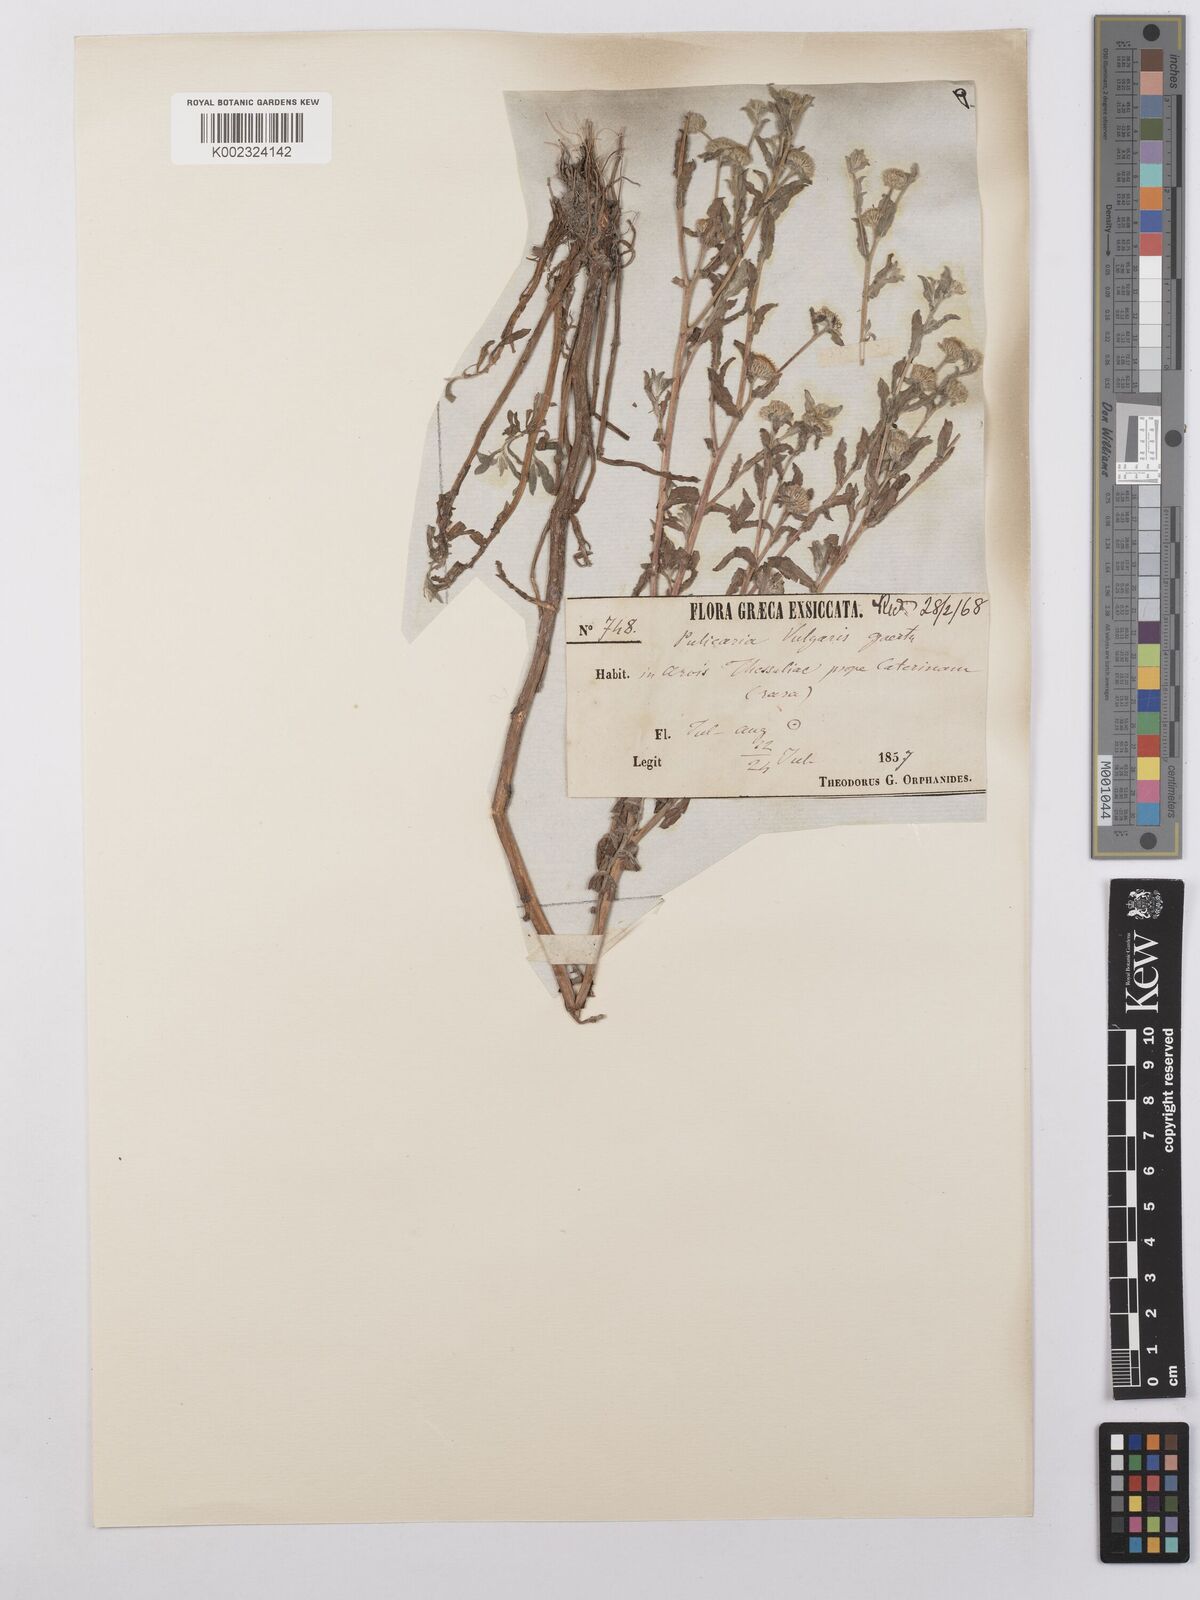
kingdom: Plantae
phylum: Tracheophyta
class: Magnoliopsida
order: Asterales
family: Asteraceae
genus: Pulicaria
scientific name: Pulicaria vulgaris
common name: Small fleabane
